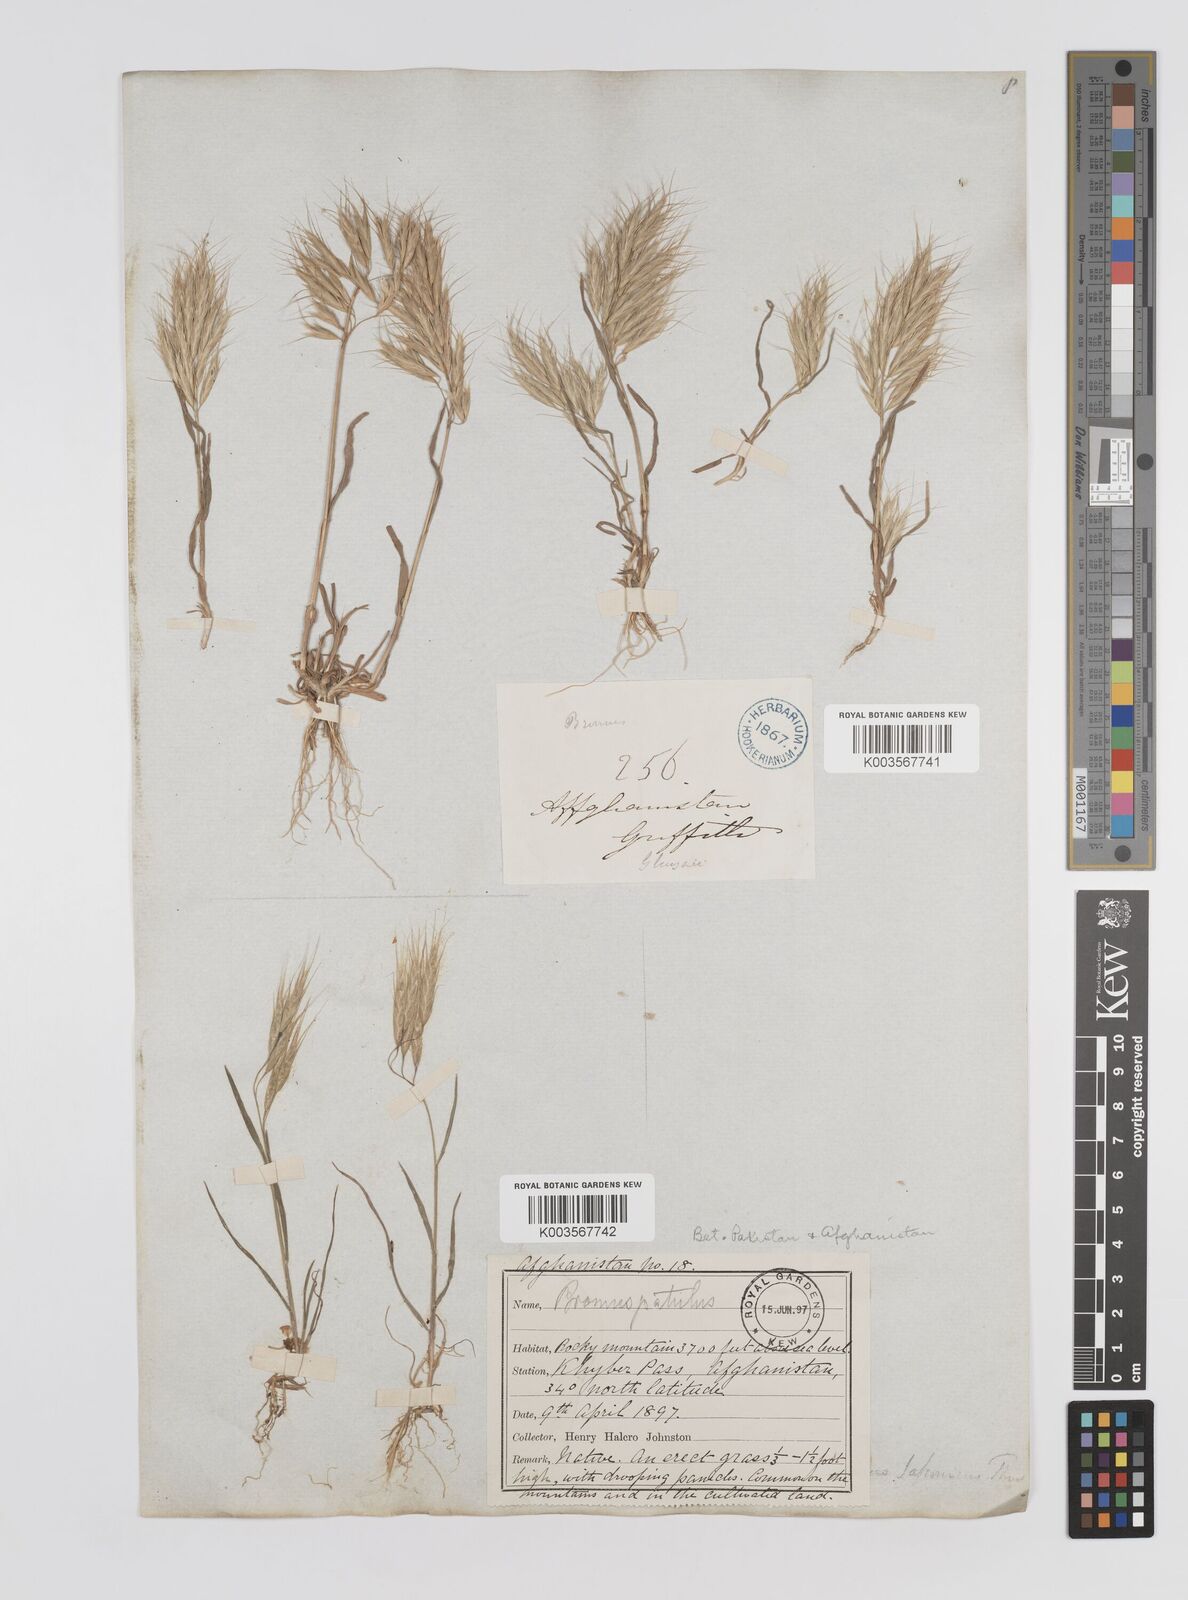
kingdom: Plantae
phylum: Tracheophyta
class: Liliopsida
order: Poales
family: Poaceae
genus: Bromus
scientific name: Bromus
